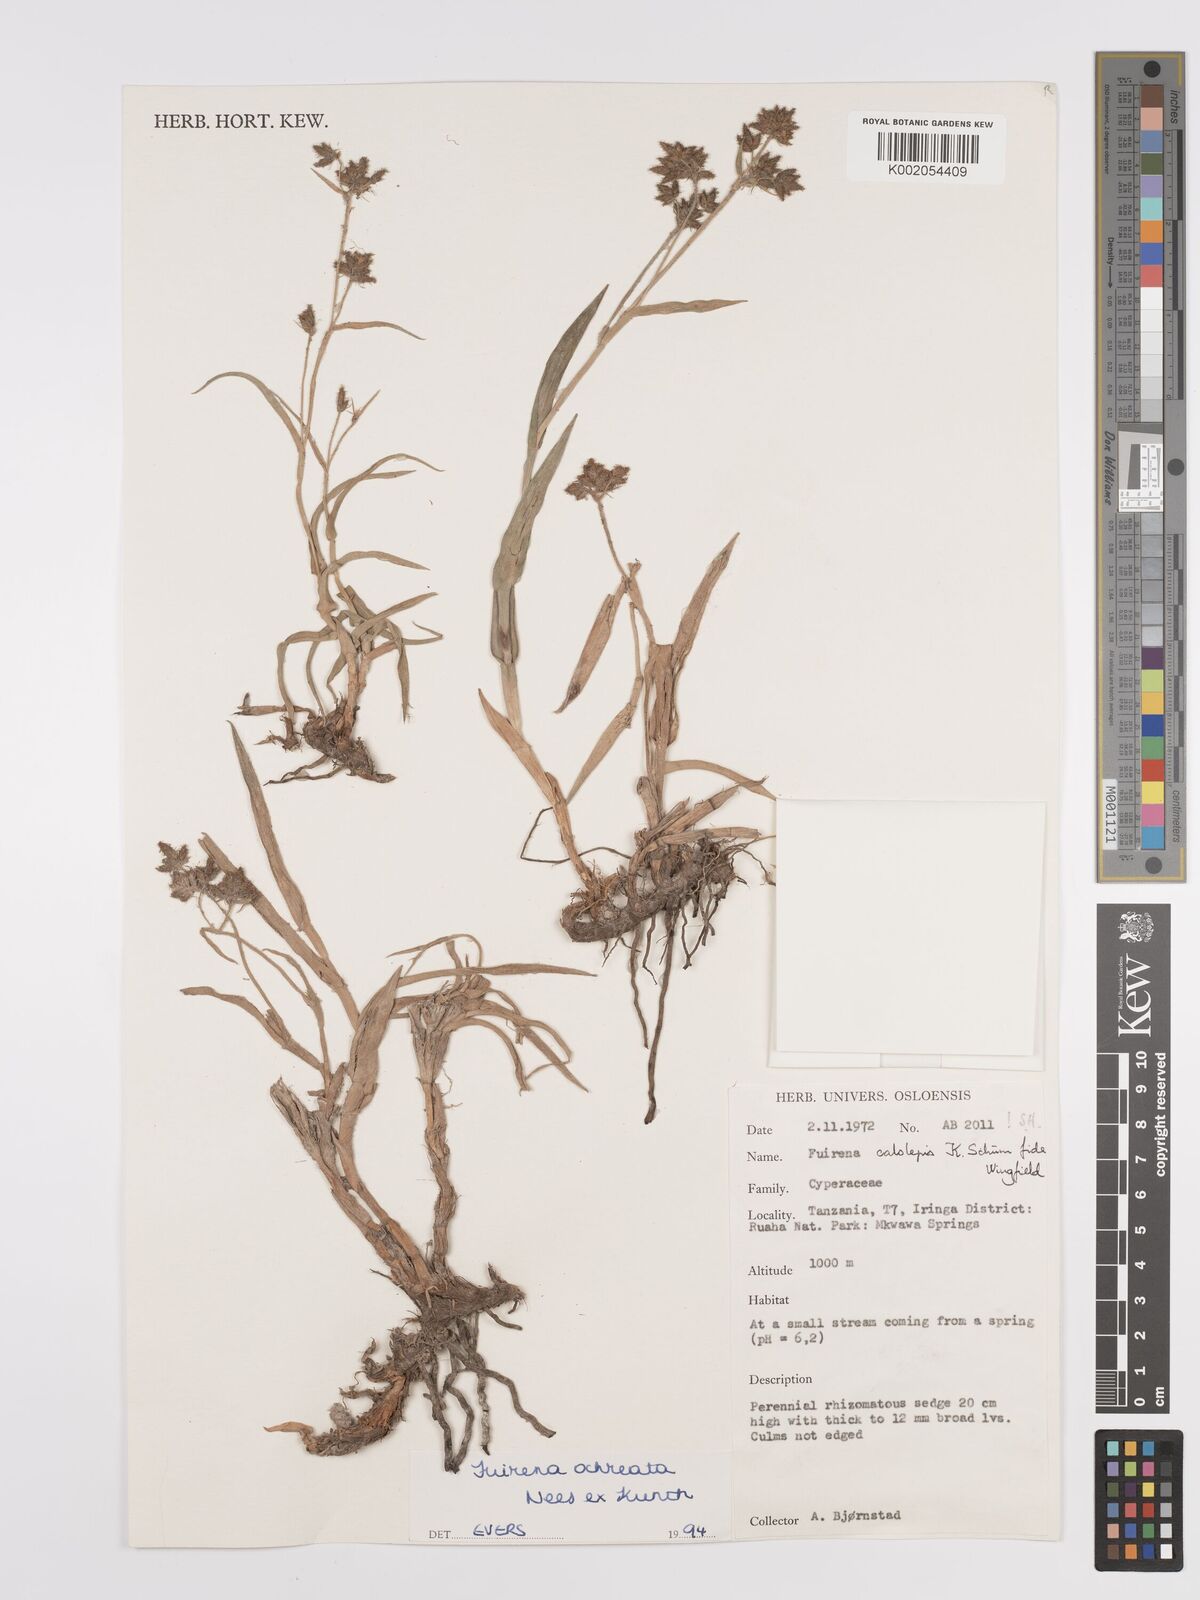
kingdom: Plantae
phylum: Tracheophyta
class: Liliopsida
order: Poales
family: Cyperaceae
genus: Fuirena
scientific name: Fuirena ochreata
